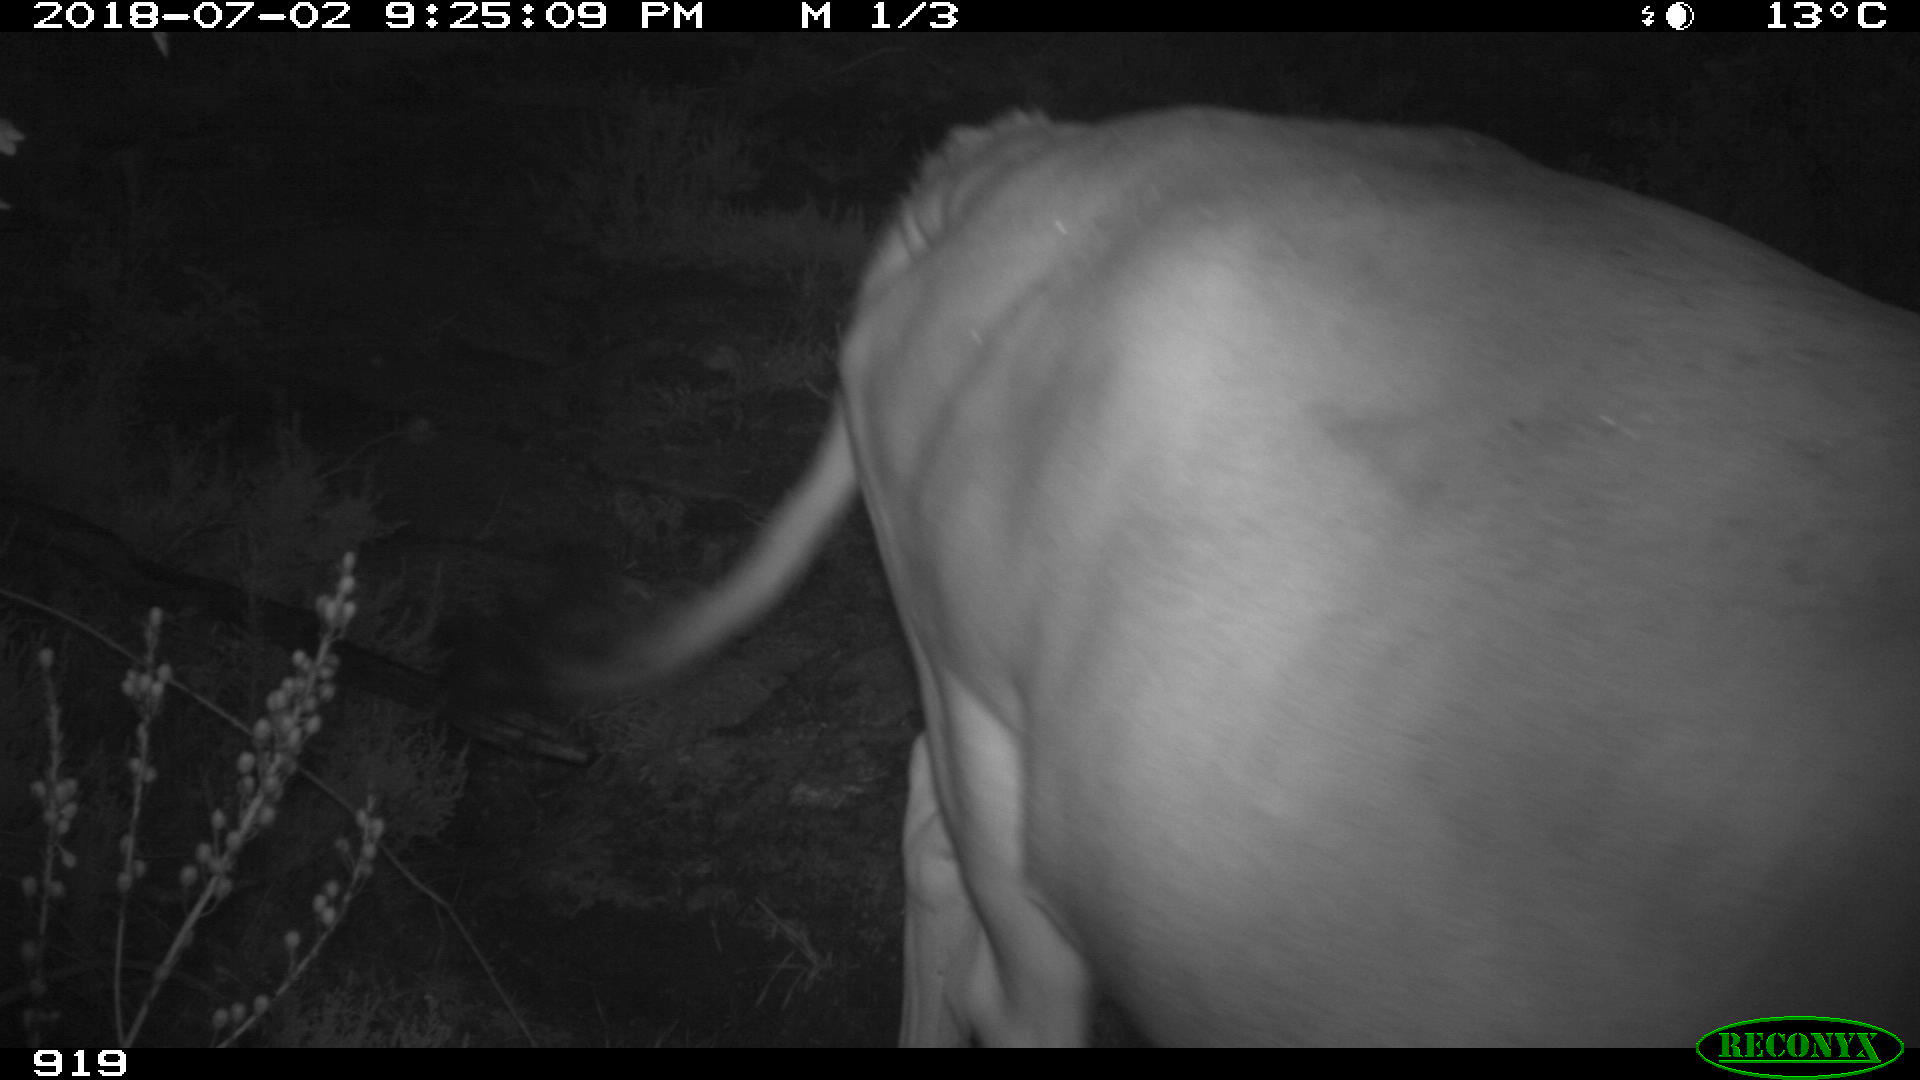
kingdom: Animalia
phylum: Chordata
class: Mammalia
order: Artiodactyla
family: Bovidae
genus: Bos
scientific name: Bos taurus
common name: Domesticated cattle
